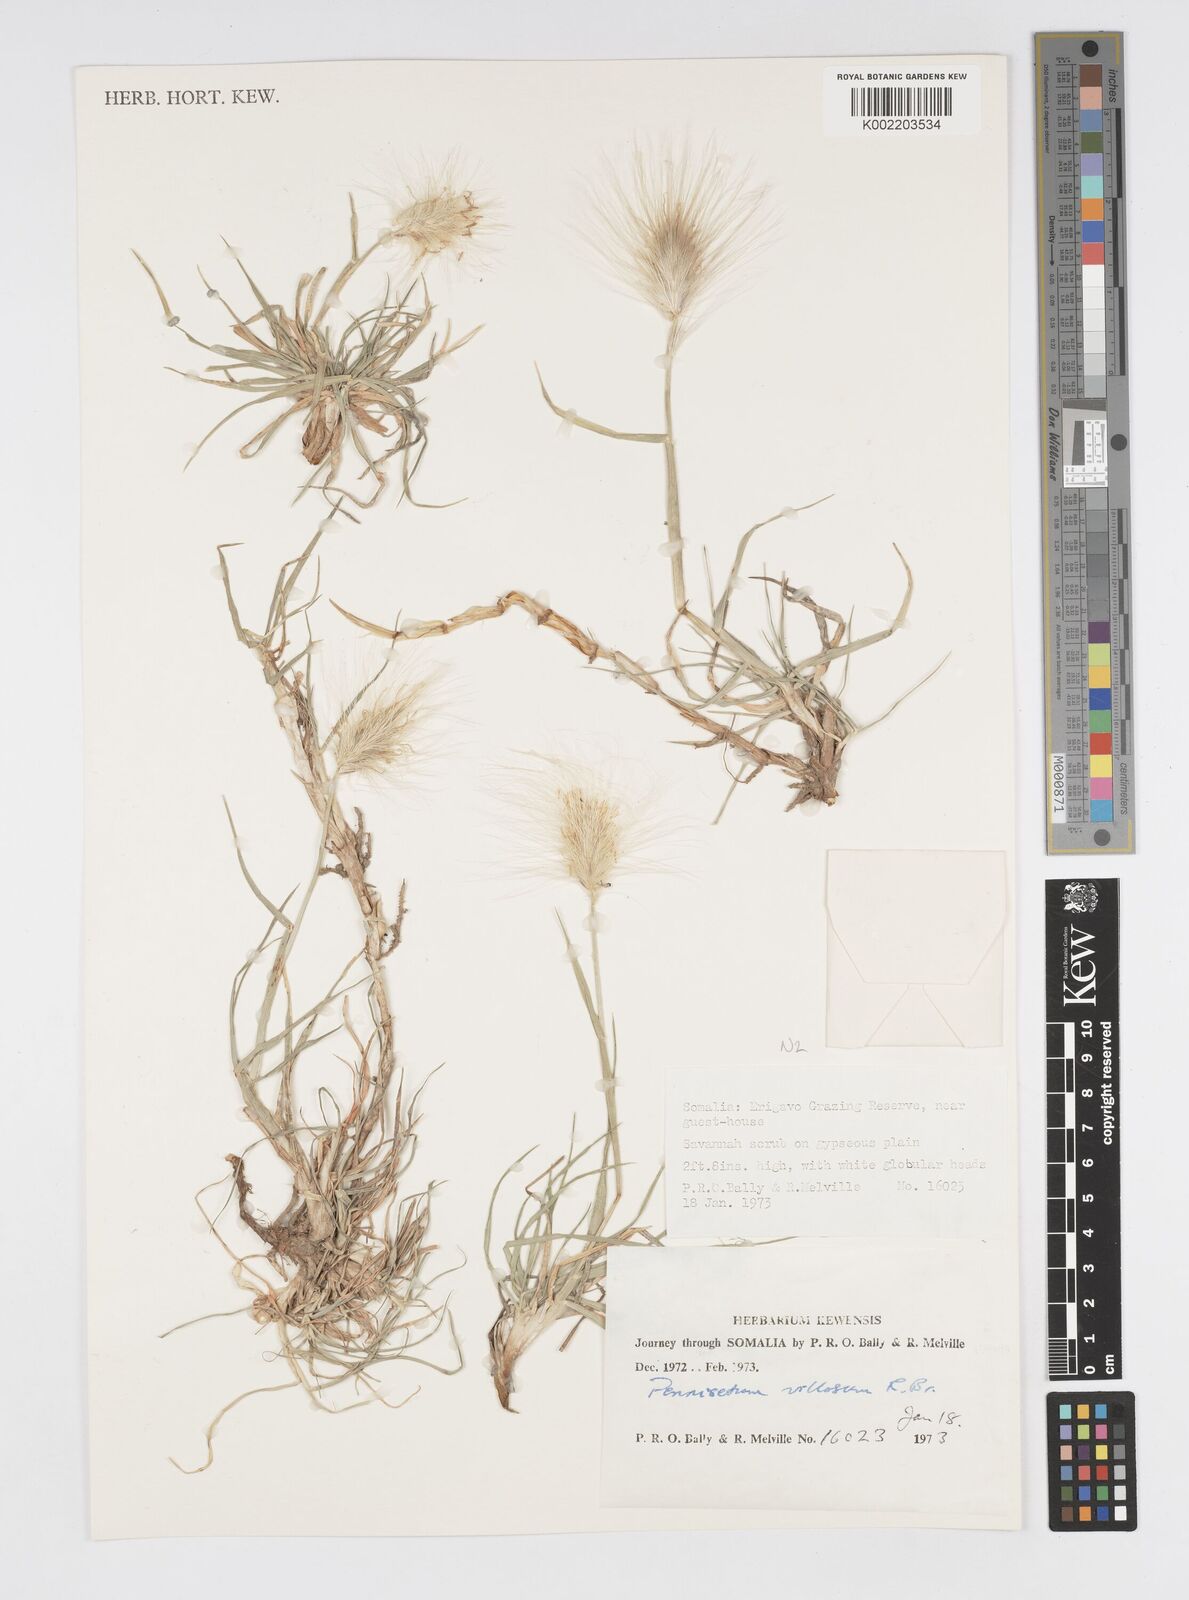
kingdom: Plantae
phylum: Tracheophyta
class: Liliopsida
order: Poales
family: Poaceae
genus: Cenchrus
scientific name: Cenchrus longisetus
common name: Feathertop
